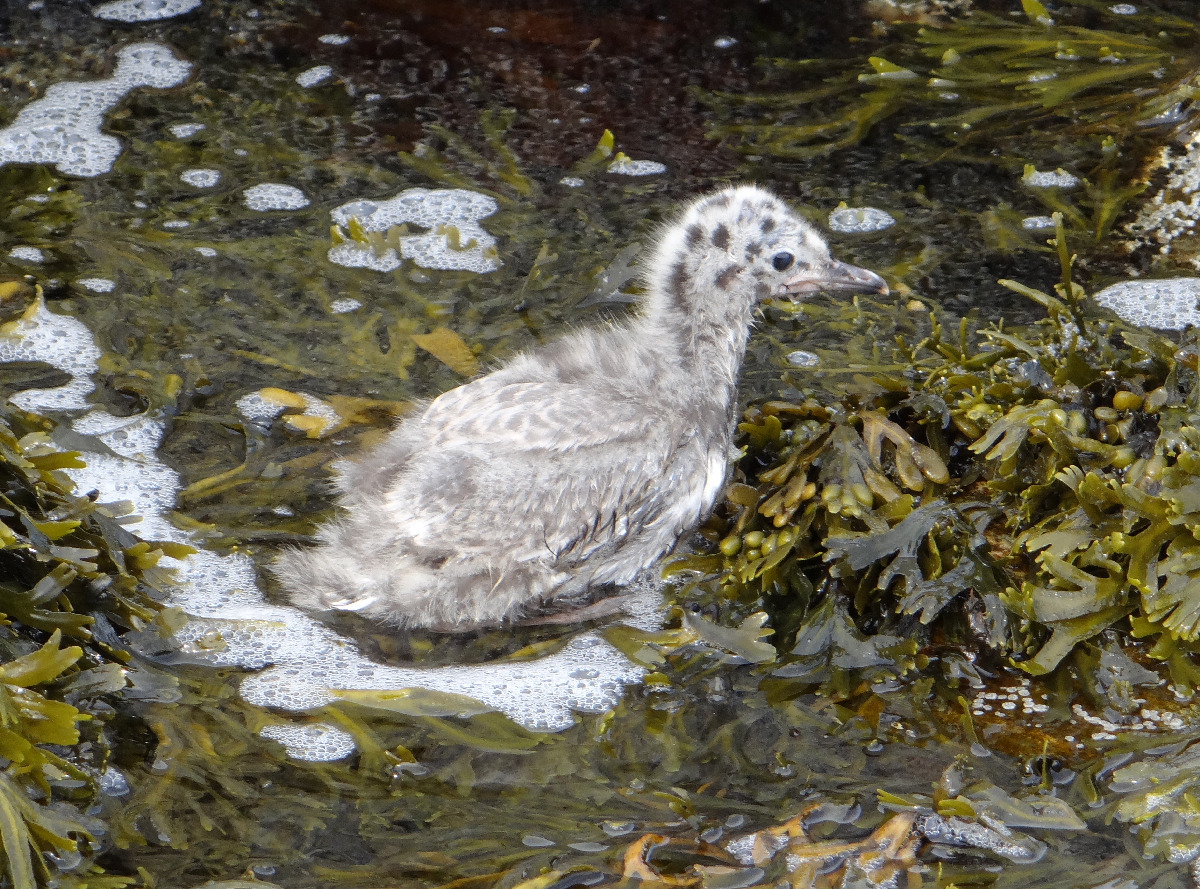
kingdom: Animalia
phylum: Chordata
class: Aves
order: Charadriiformes
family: Laridae
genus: Larus
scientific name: Larus canus
